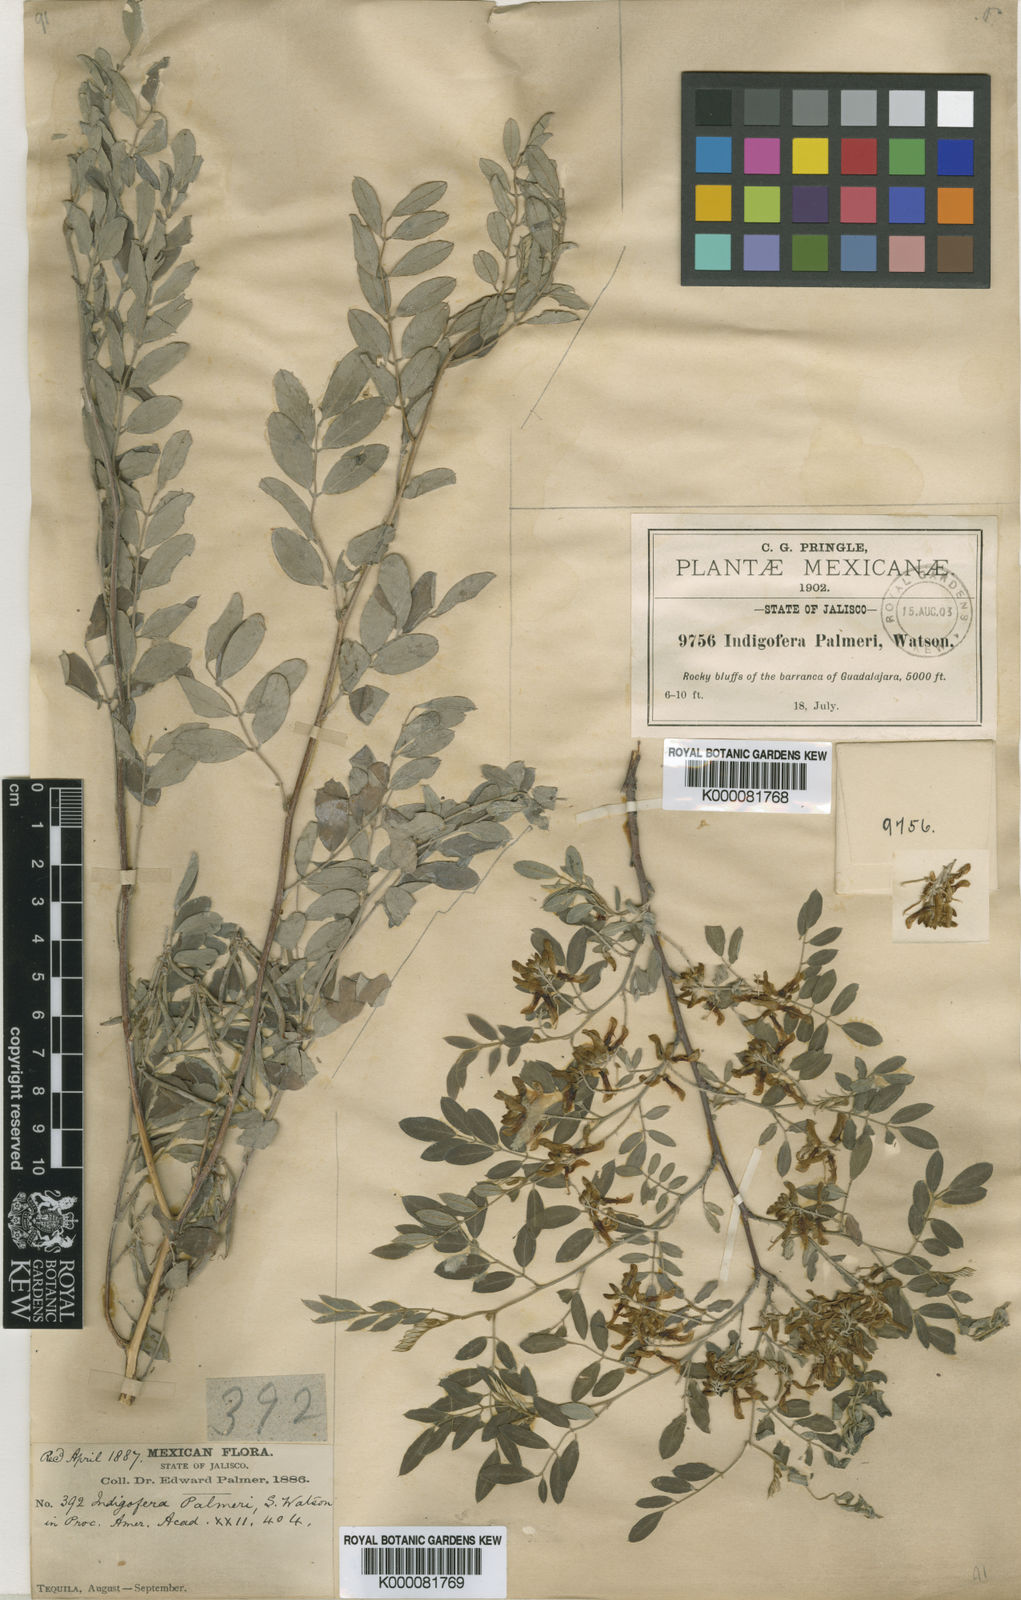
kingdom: Plantae
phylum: Tracheophyta
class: Magnoliopsida
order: Fabales
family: Fabaceae
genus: Indigofera
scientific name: Indigofera palmeri
